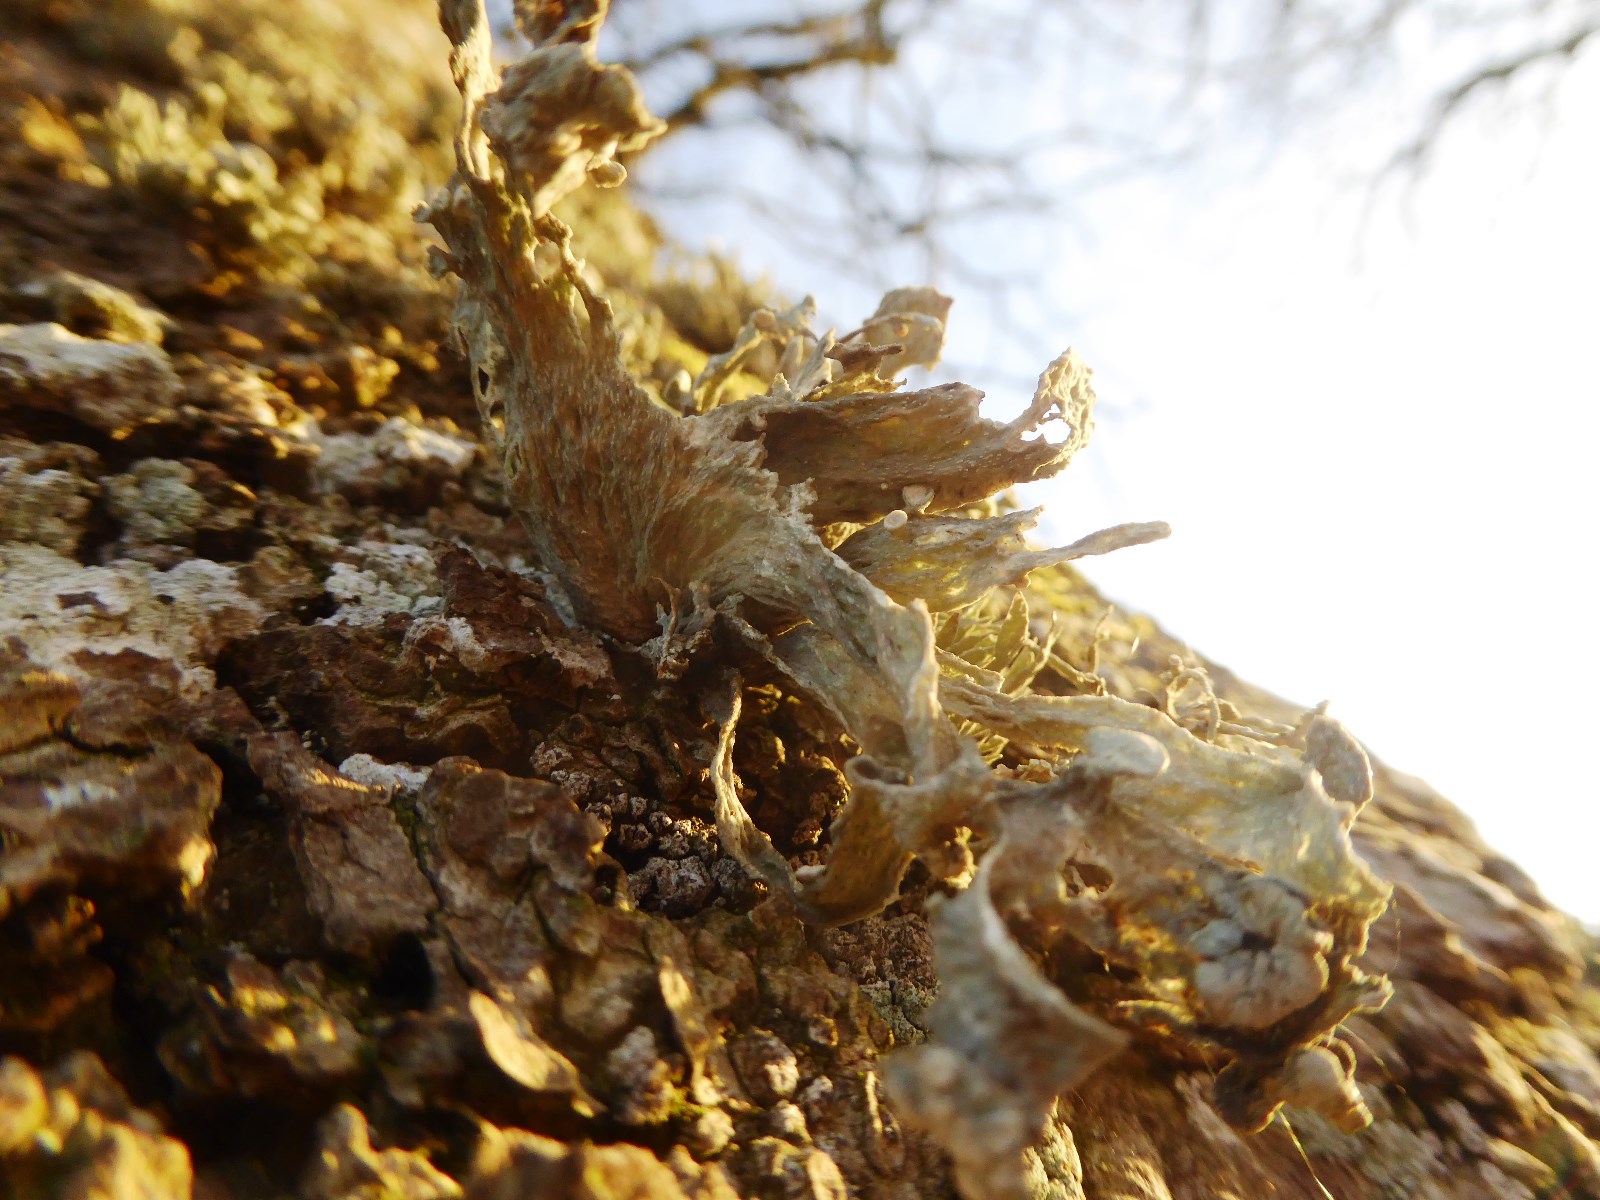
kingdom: Fungi
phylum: Ascomycota
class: Lecanoromycetes
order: Lecanorales
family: Ramalinaceae
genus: Ramalina
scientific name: Ramalina fraxinea
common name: stor grenlav
